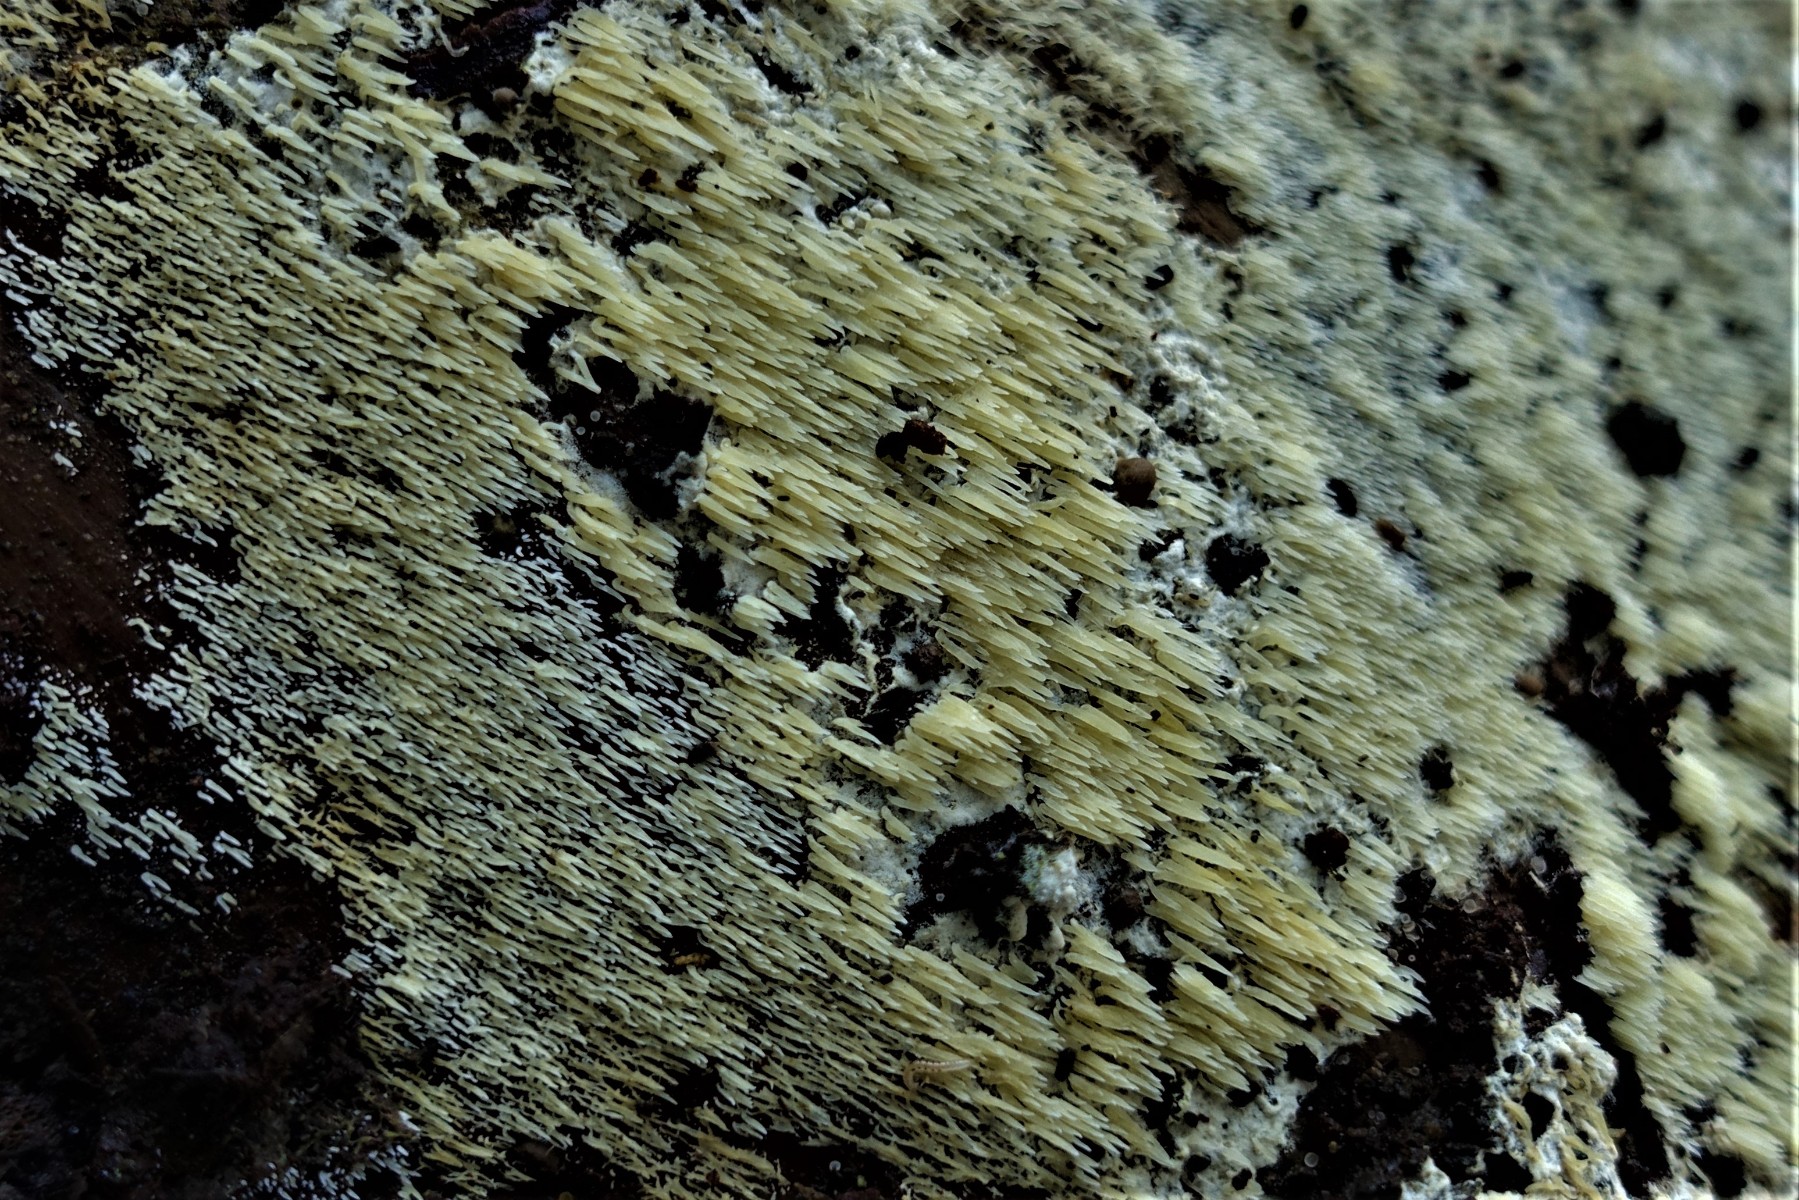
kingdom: Fungi
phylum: Basidiomycota
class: Agaricomycetes
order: Polyporales
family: Meruliaceae
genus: Mycoacia
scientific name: Mycoacia uda
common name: citrongul vokspig
